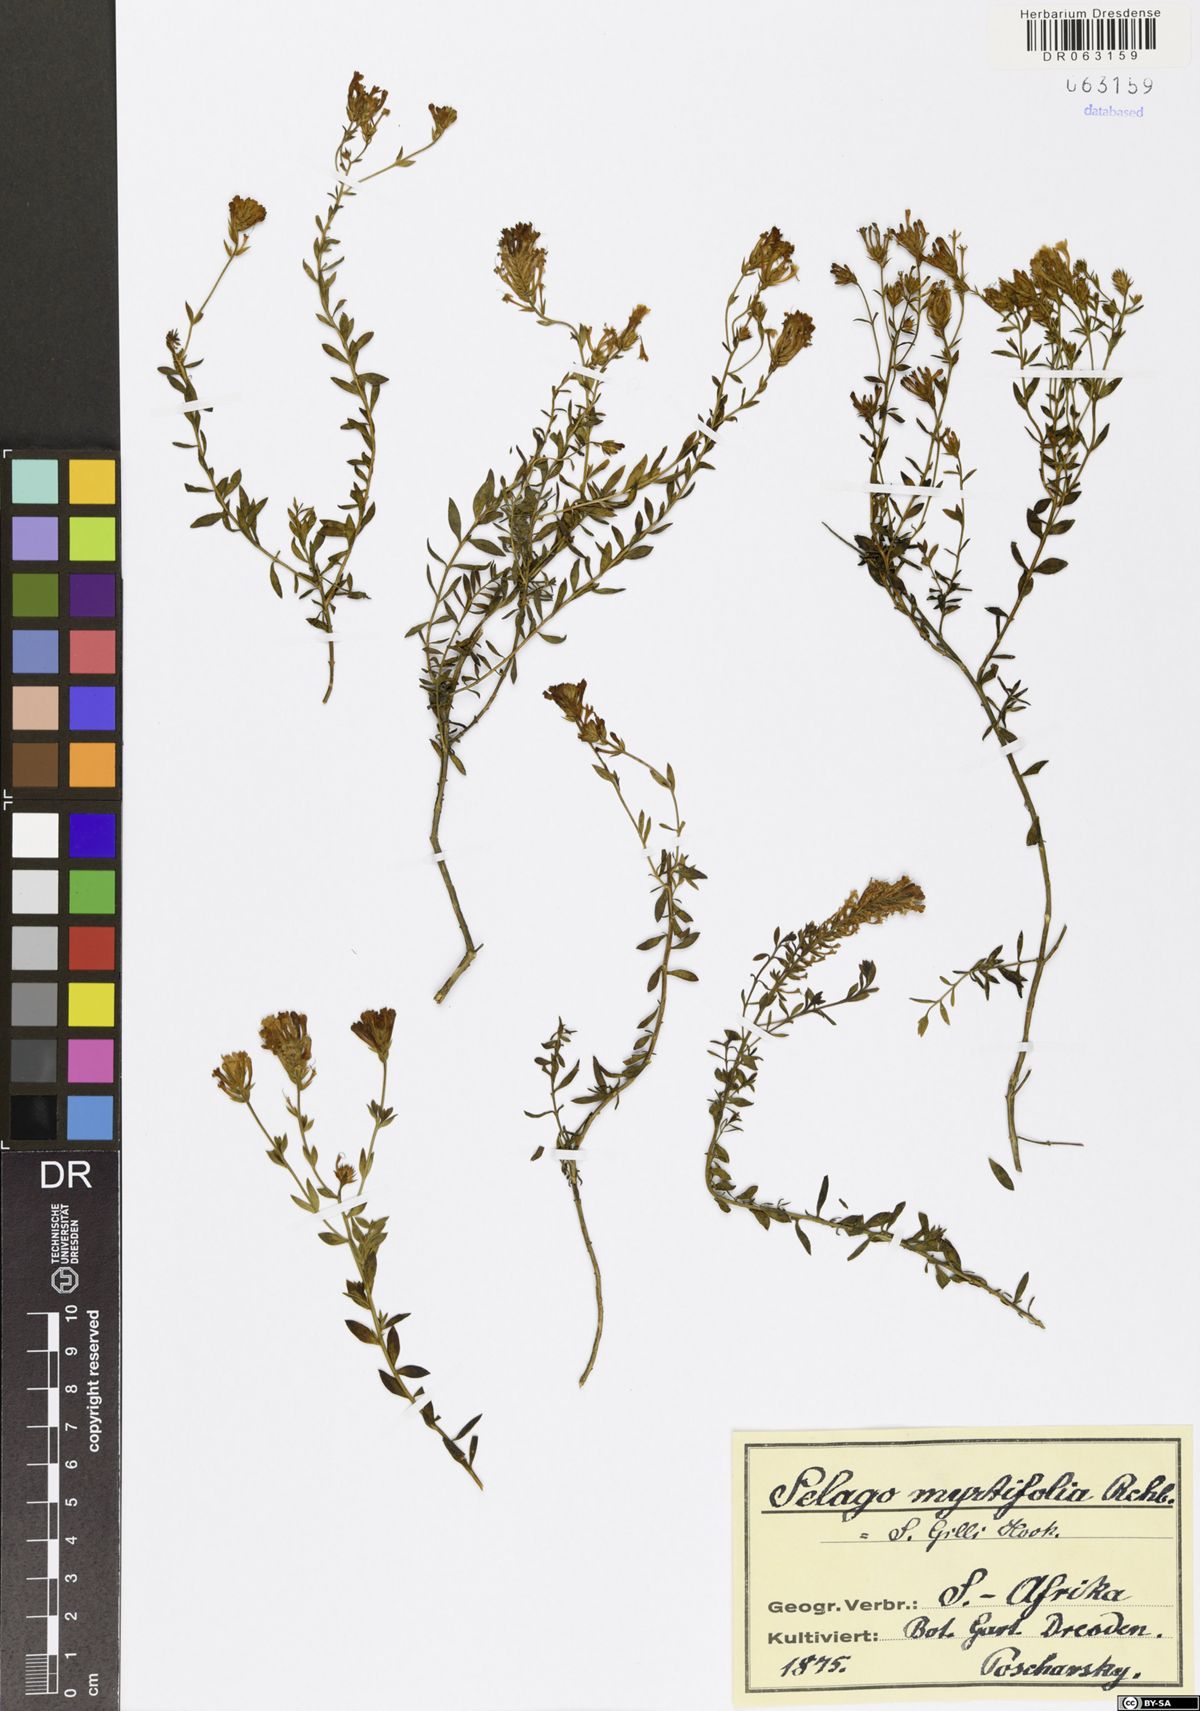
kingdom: Plantae
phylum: Tracheophyta
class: Magnoliopsida
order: Lamiales
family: Scrophulariaceae
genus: Selago
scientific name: Selago myrtifolia
